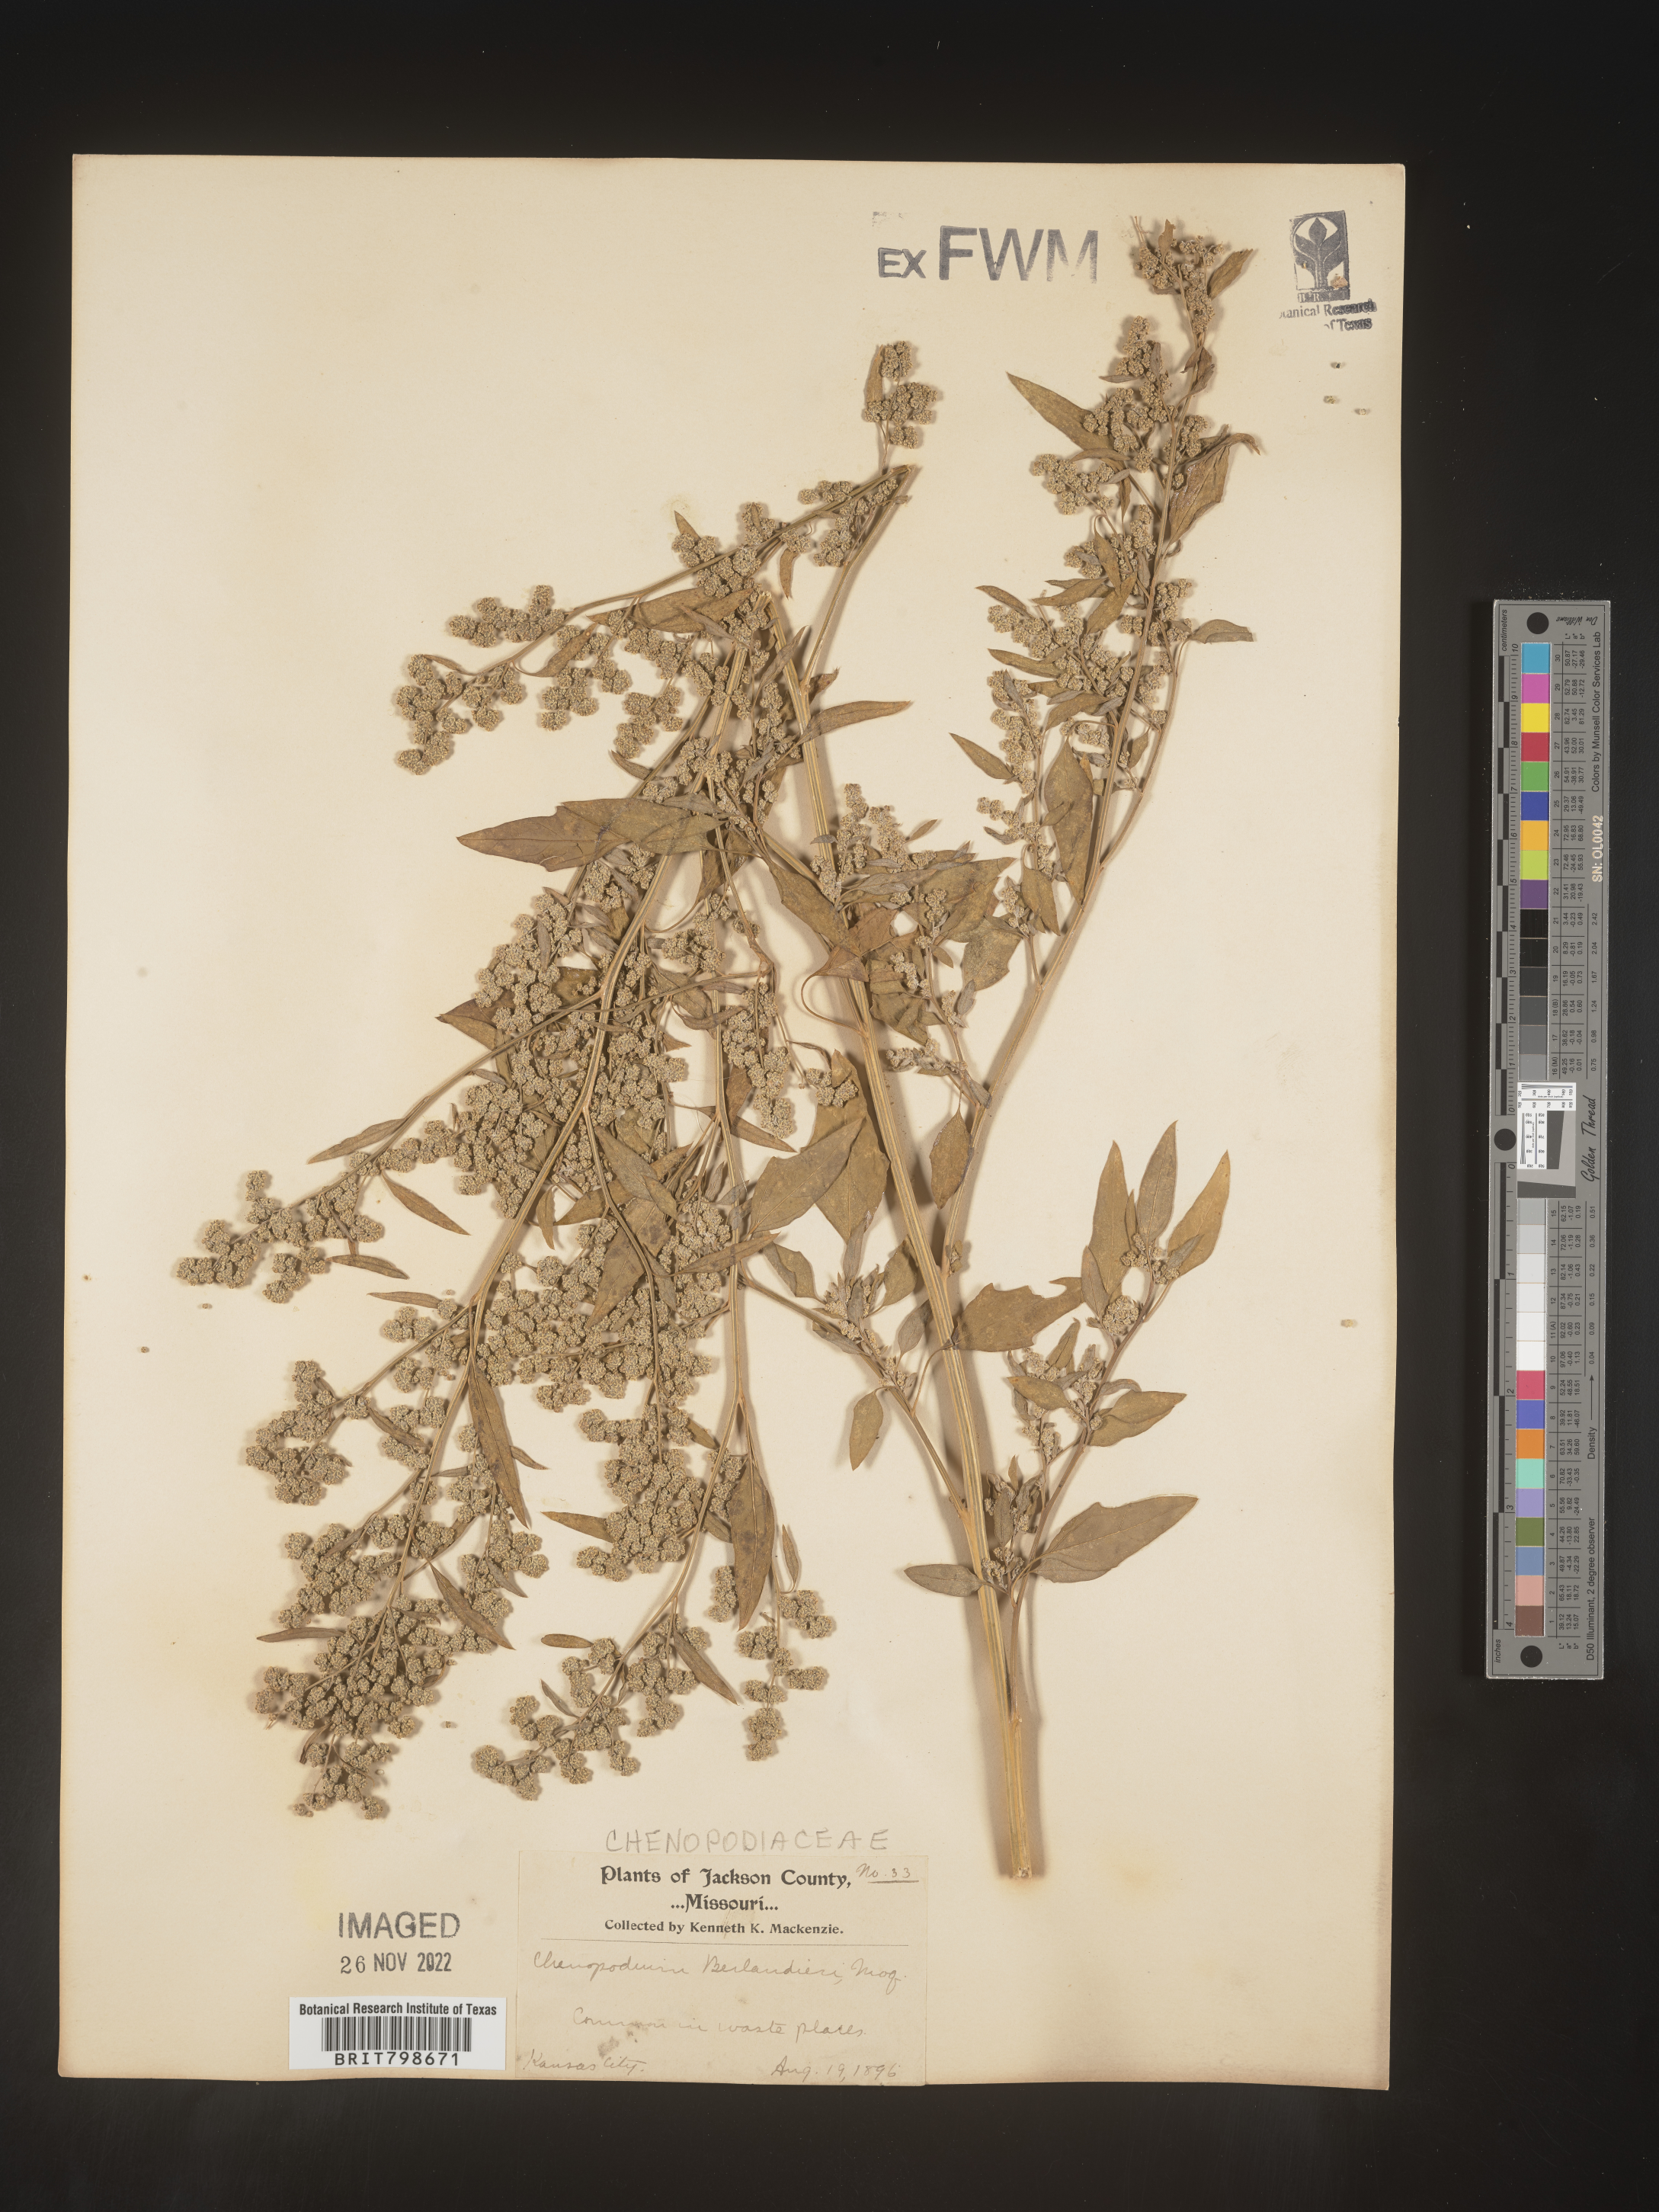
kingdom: Plantae
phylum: Tracheophyta
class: Magnoliopsida
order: Caryophyllales
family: Amaranthaceae
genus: Chenopodium
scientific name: Chenopodium berlandieri
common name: Pit-seed goosefoot
